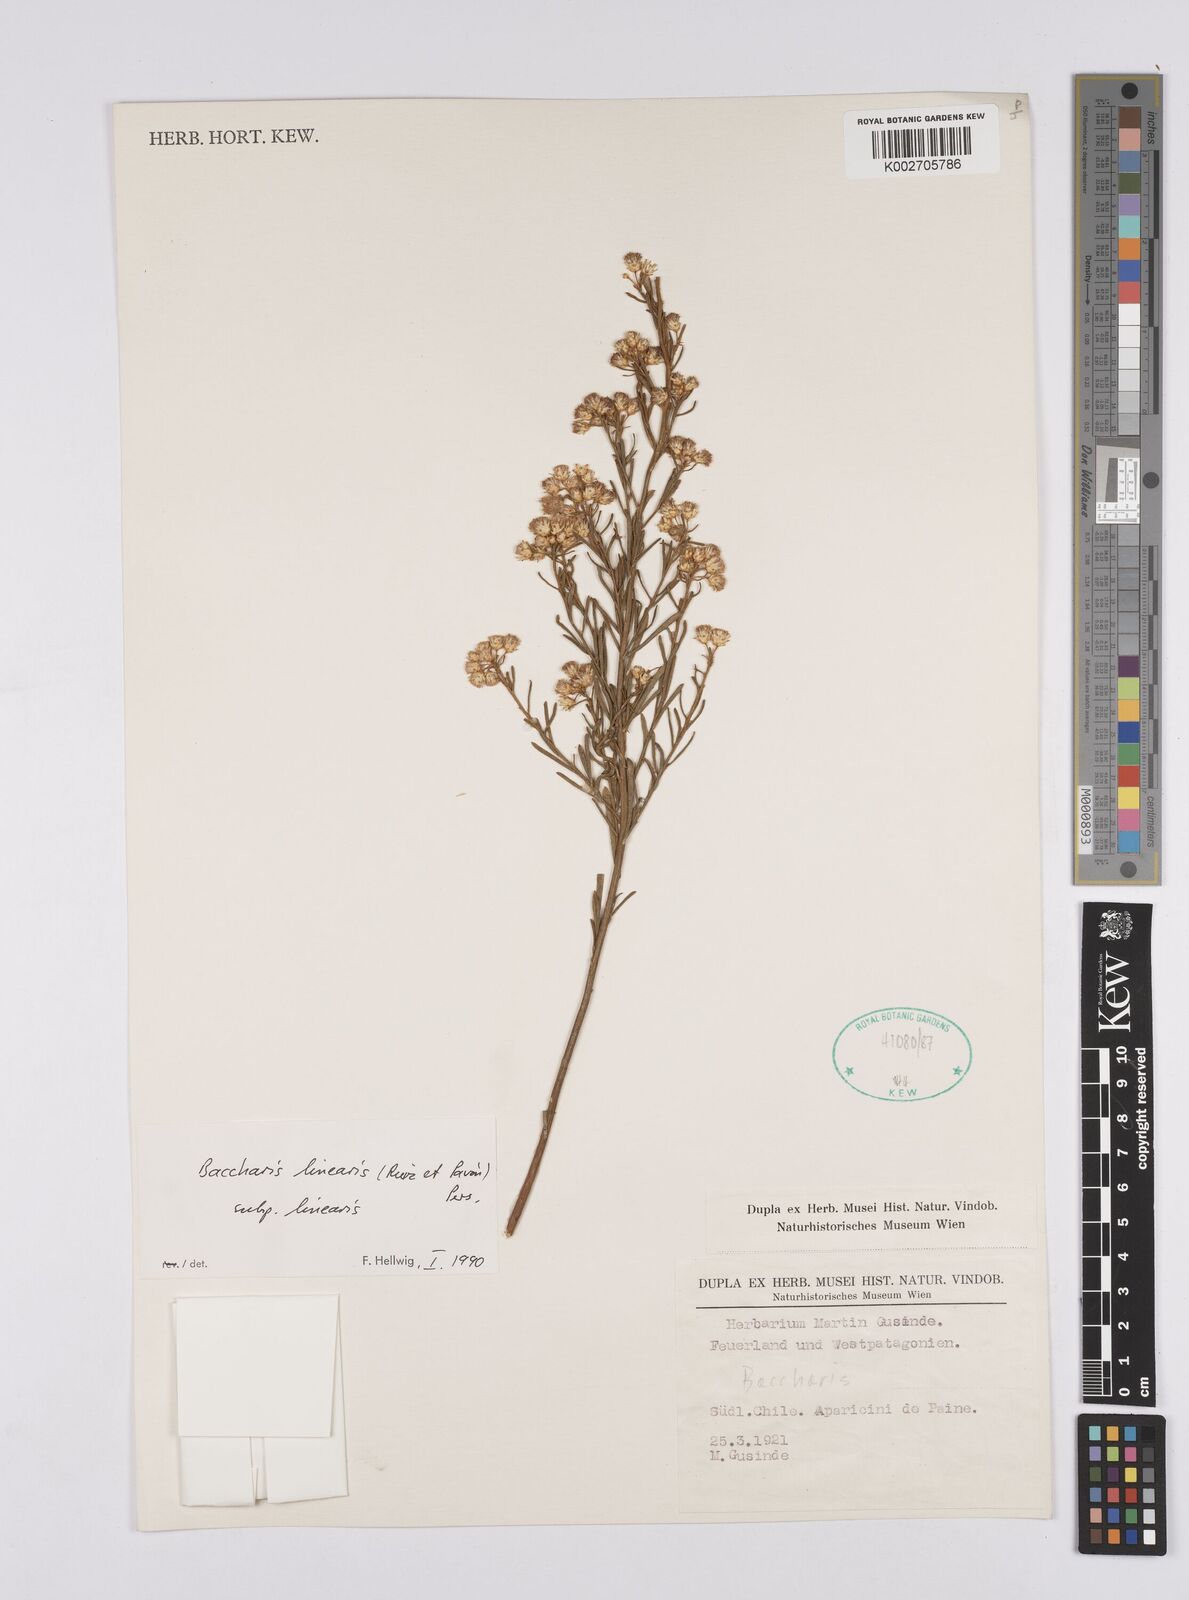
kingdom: Plantae
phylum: Tracheophyta
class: Magnoliopsida
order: Asterales
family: Asteraceae
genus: Baccharis
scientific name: Baccharis linearis
